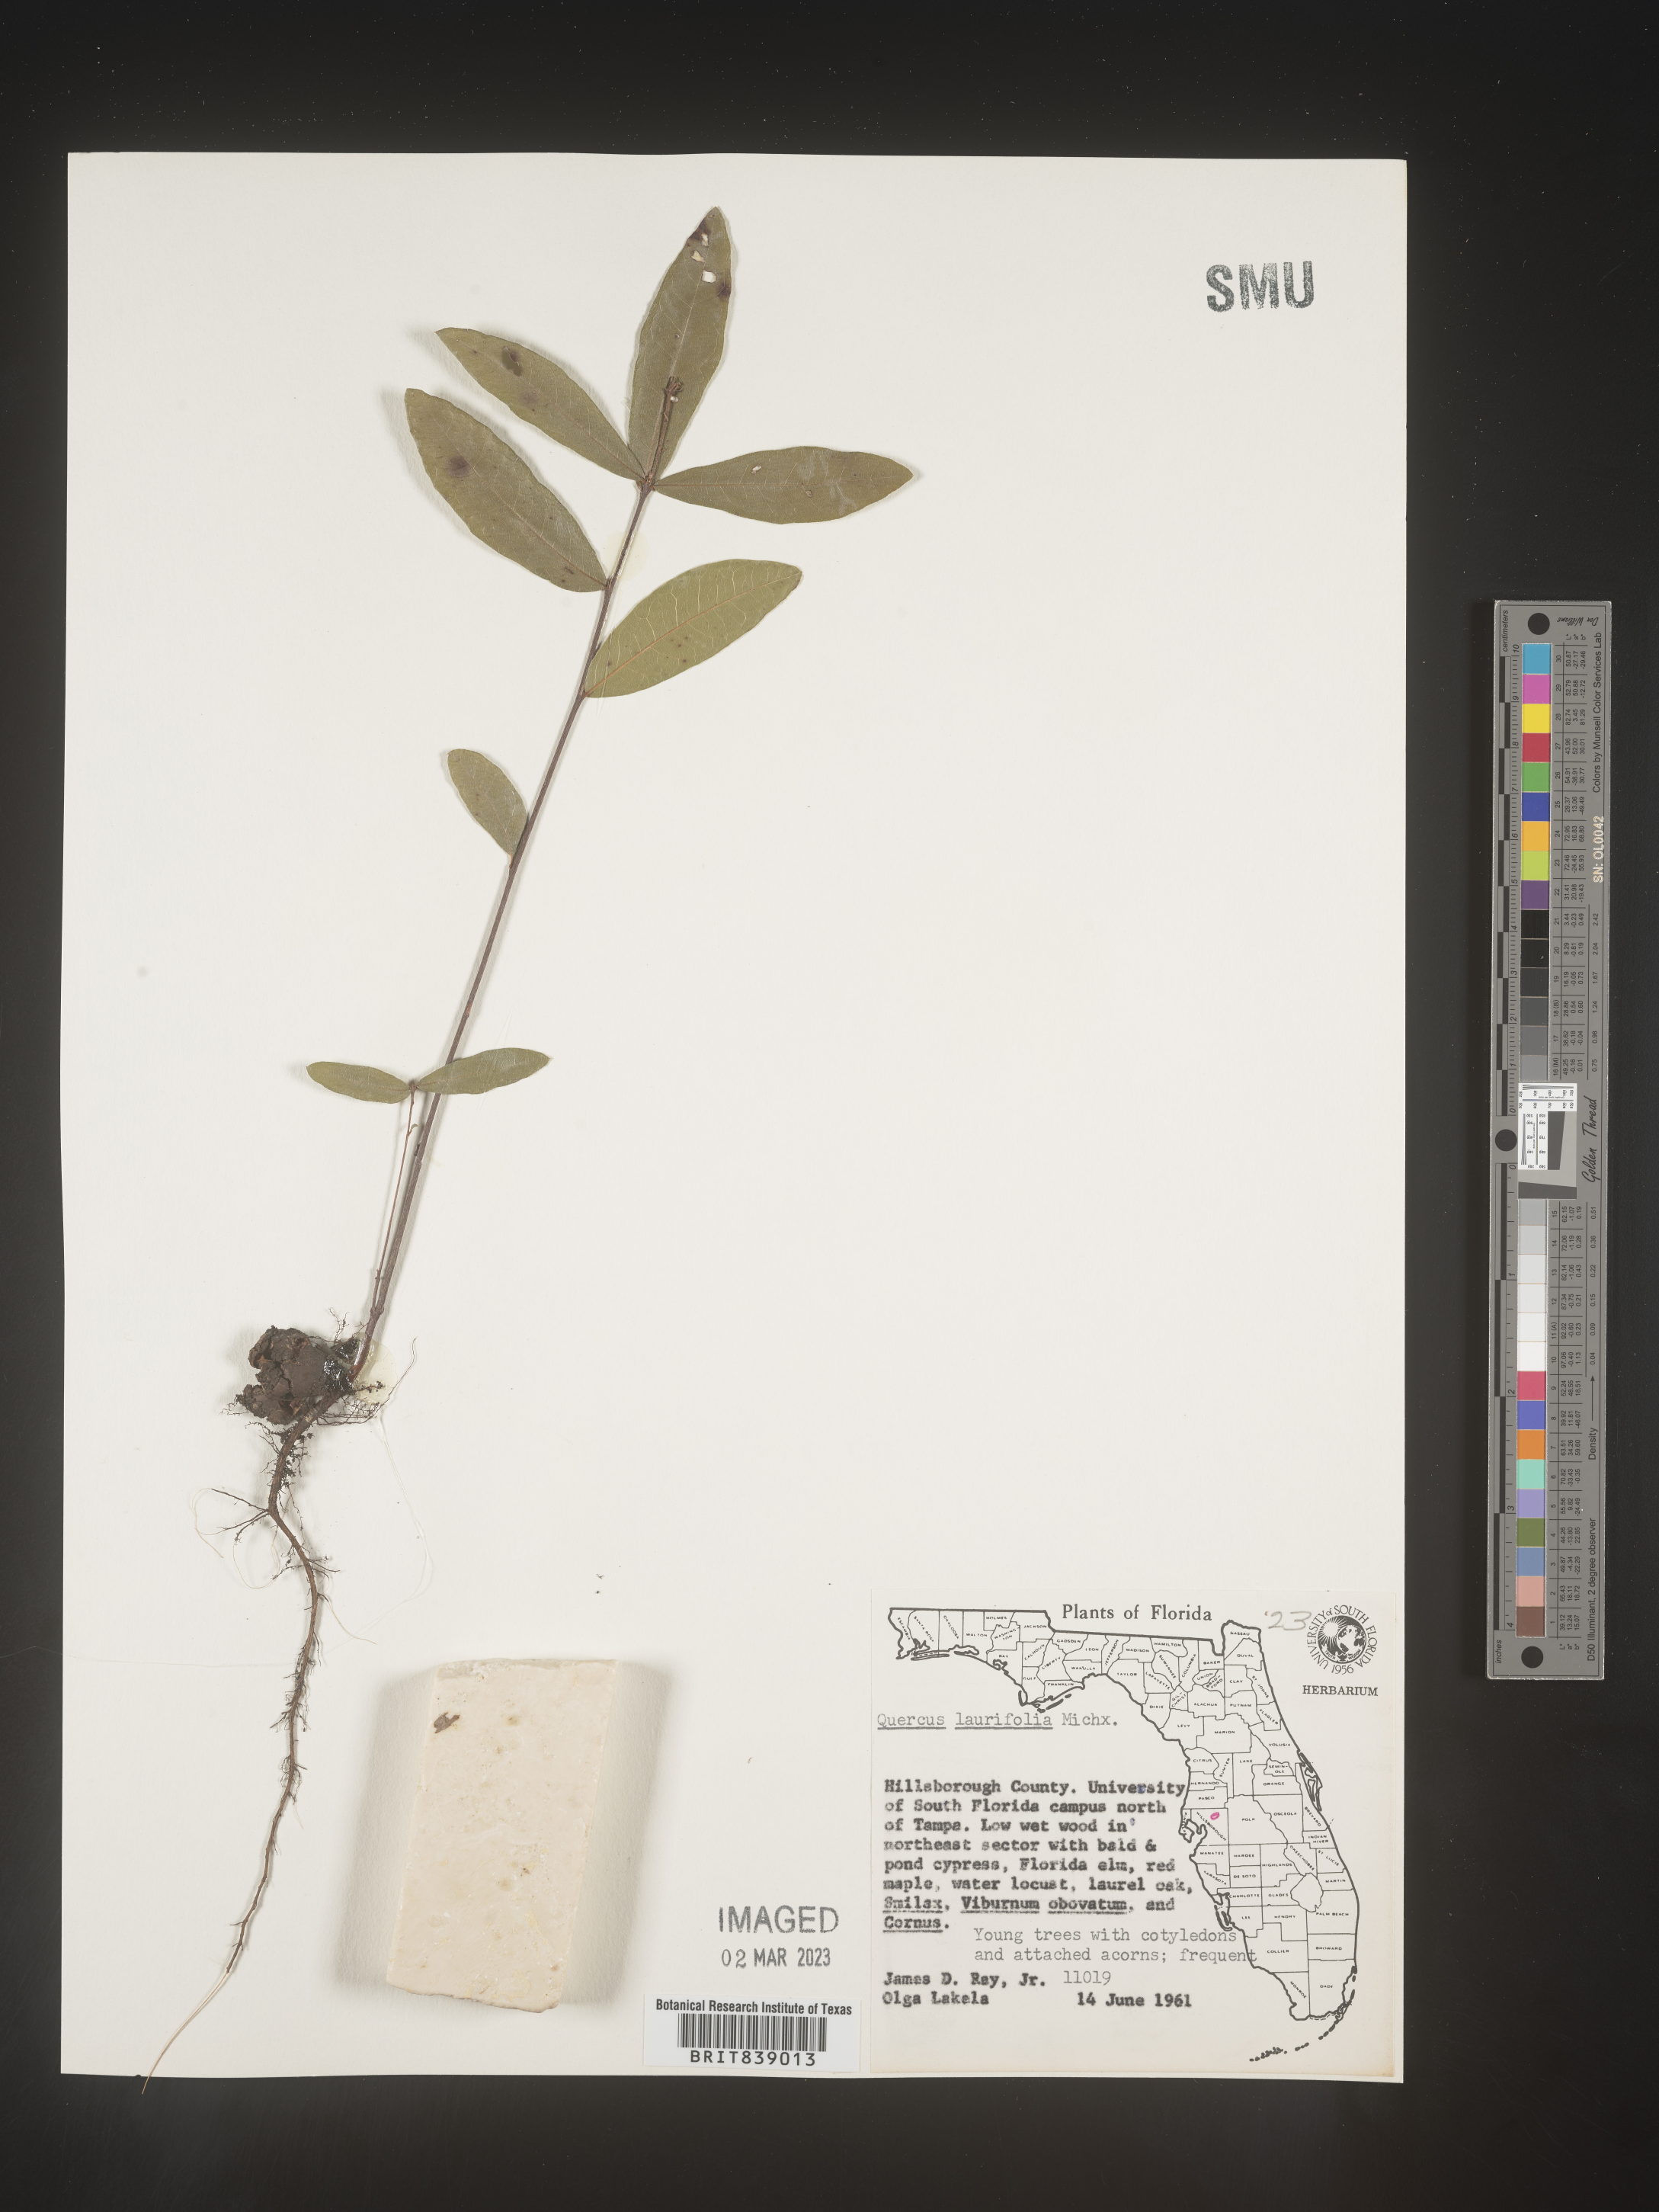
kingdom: Plantae
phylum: Tracheophyta
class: Magnoliopsida
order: Fagales
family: Fagaceae
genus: Quercus
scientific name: Quercus laurifolia
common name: Swamp laurel oak
